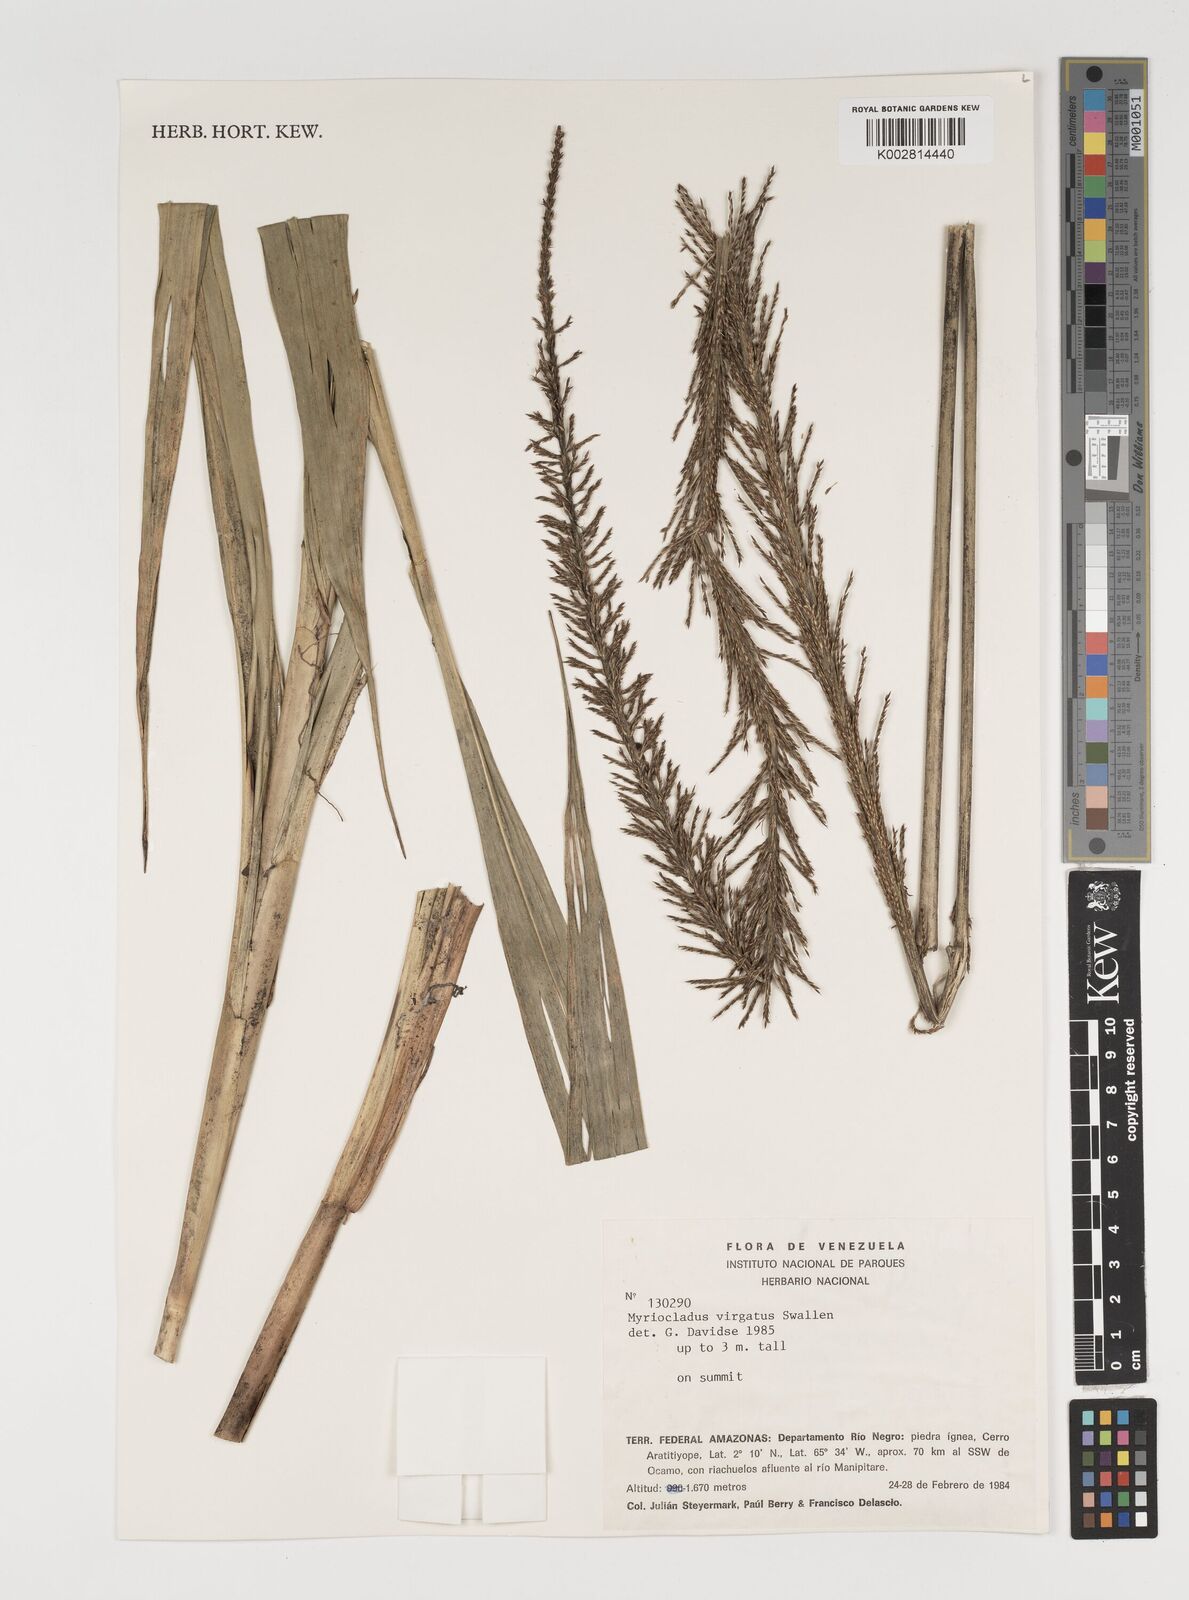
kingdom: Plantae
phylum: Tracheophyta
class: Liliopsida
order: Poales
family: Poaceae
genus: Myriocladus
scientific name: Myriocladus virgatus
